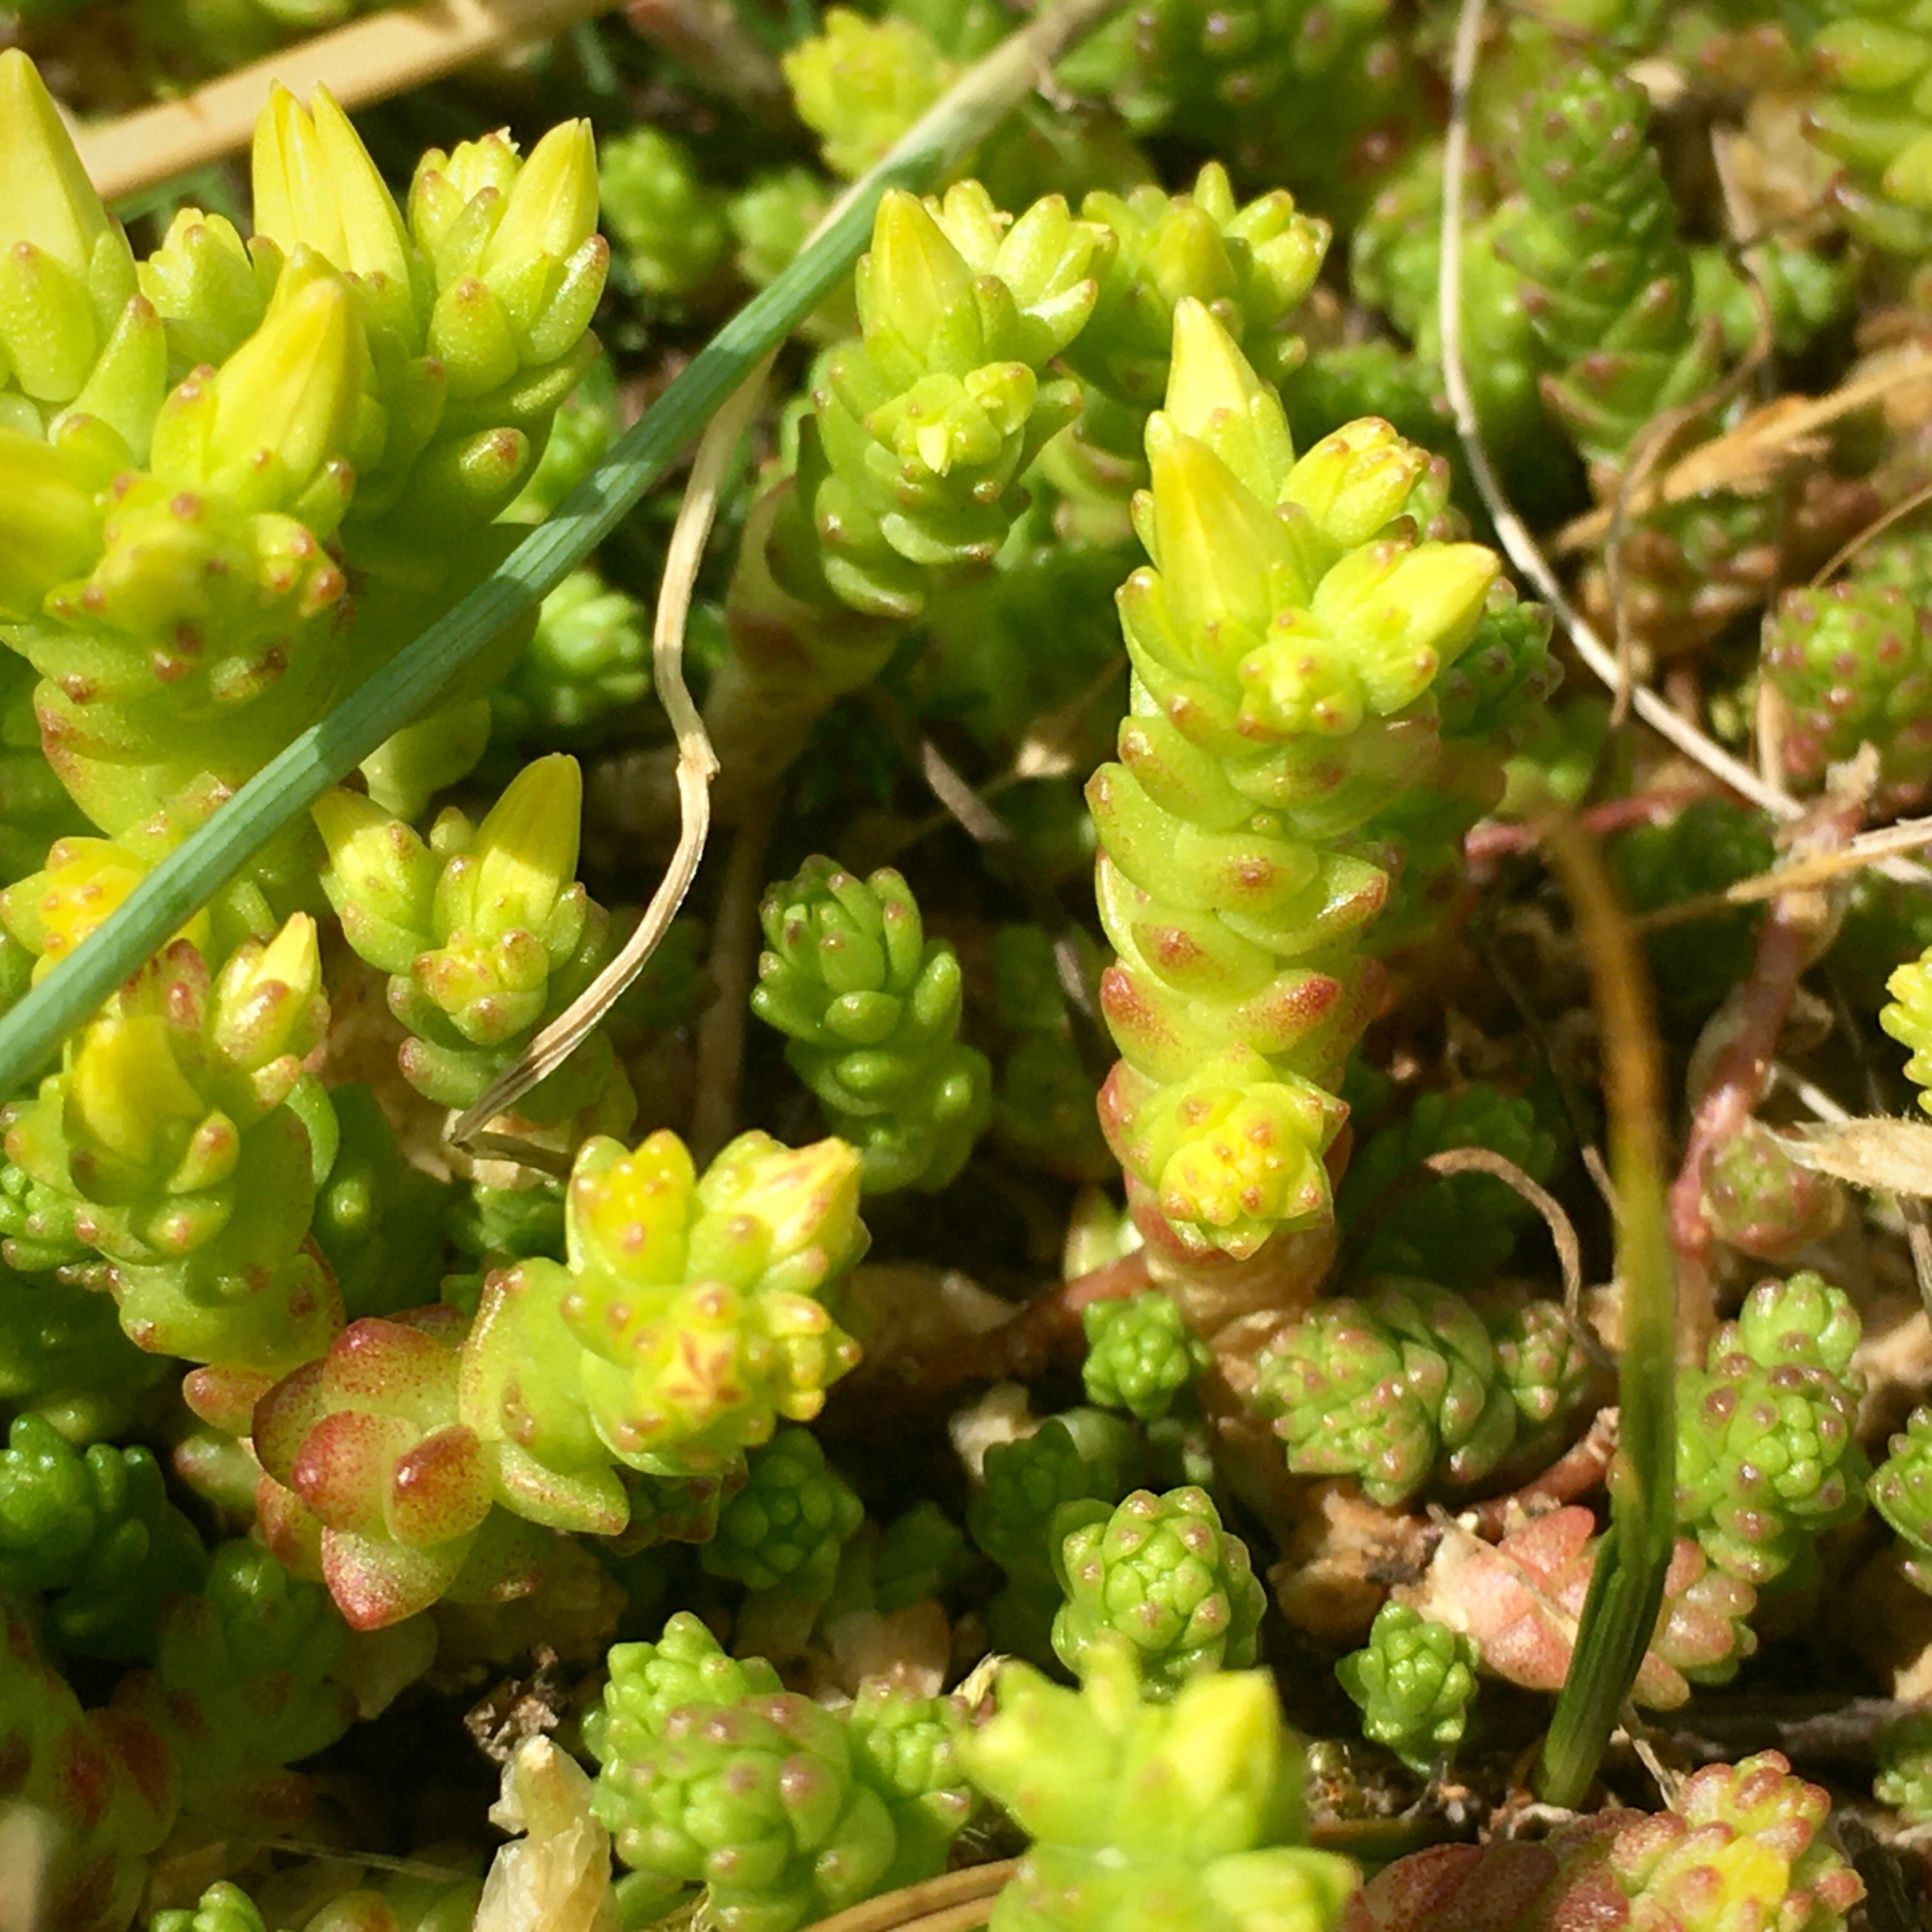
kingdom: Plantae
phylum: Tracheophyta
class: Magnoliopsida
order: Saxifragales
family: Crassulaceae
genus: Sedum
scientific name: Sedum acre
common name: Bidende stenurt
